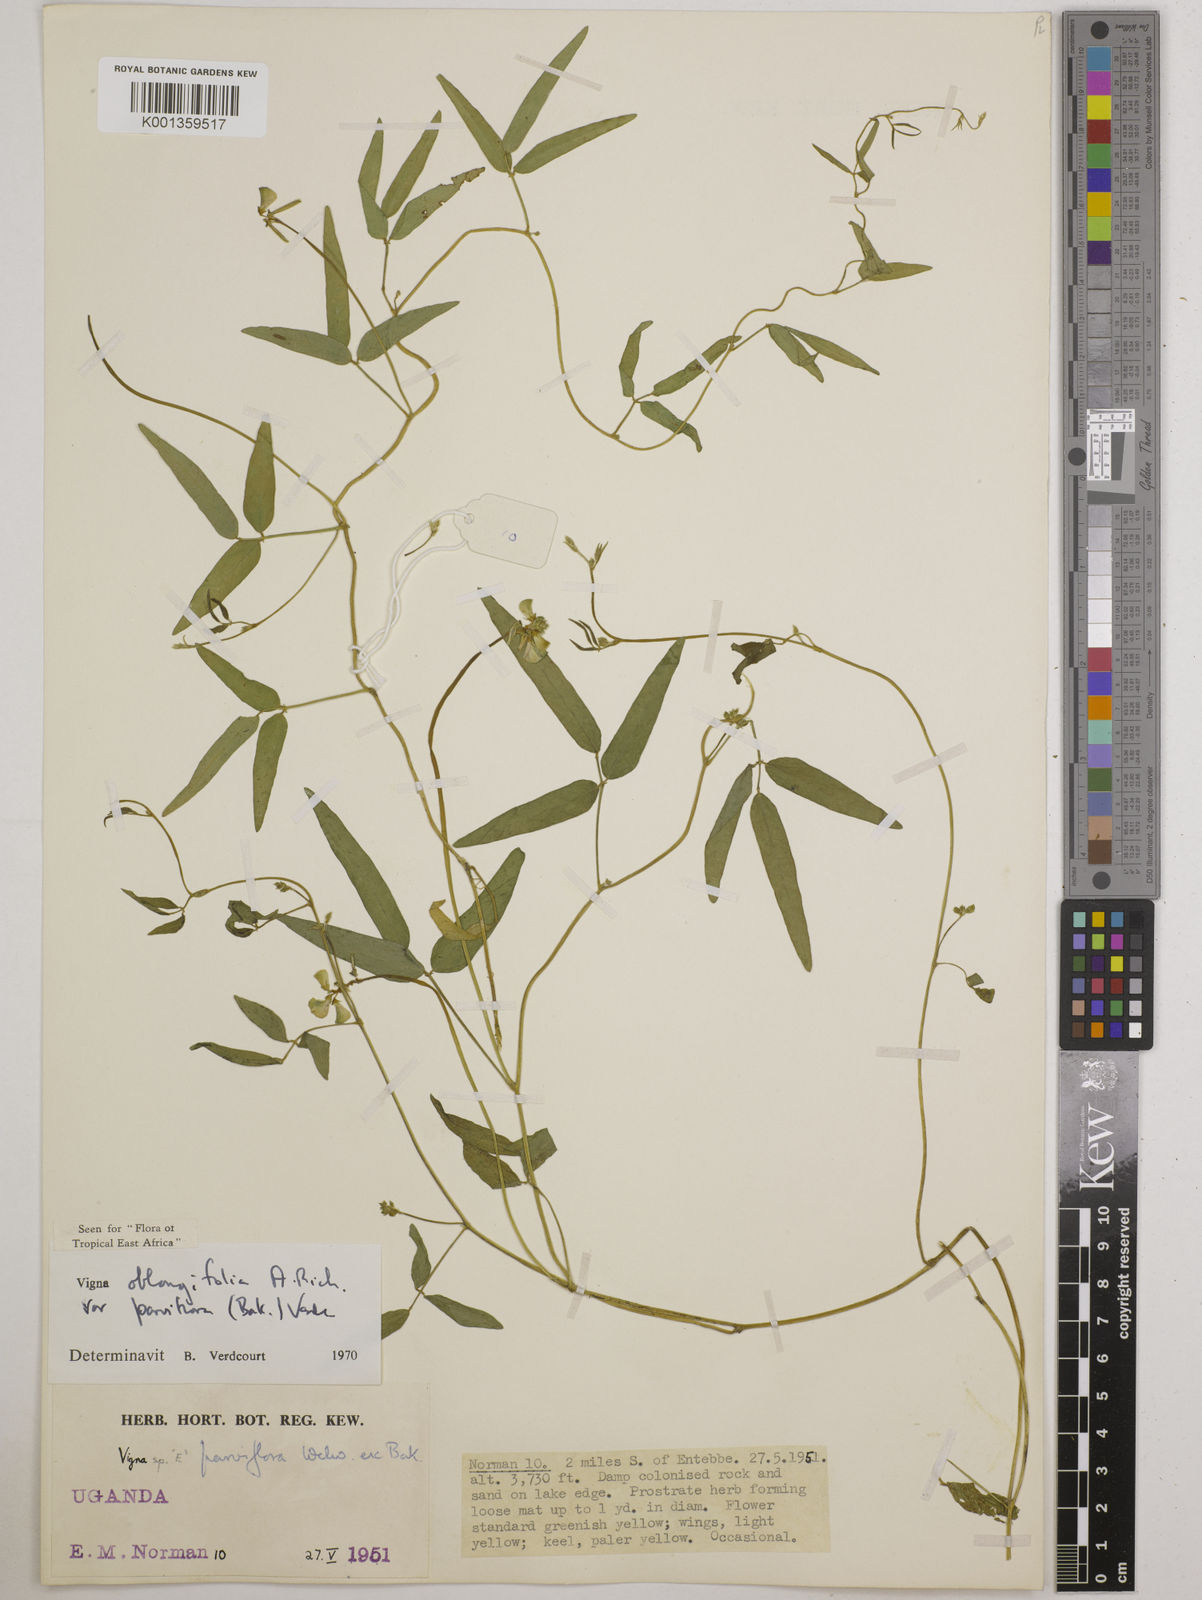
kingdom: Plantae
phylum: Tracheophyta
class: Magnoliopsida
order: Fabales
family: Fabaceae
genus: Vigna
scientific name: Vigna
